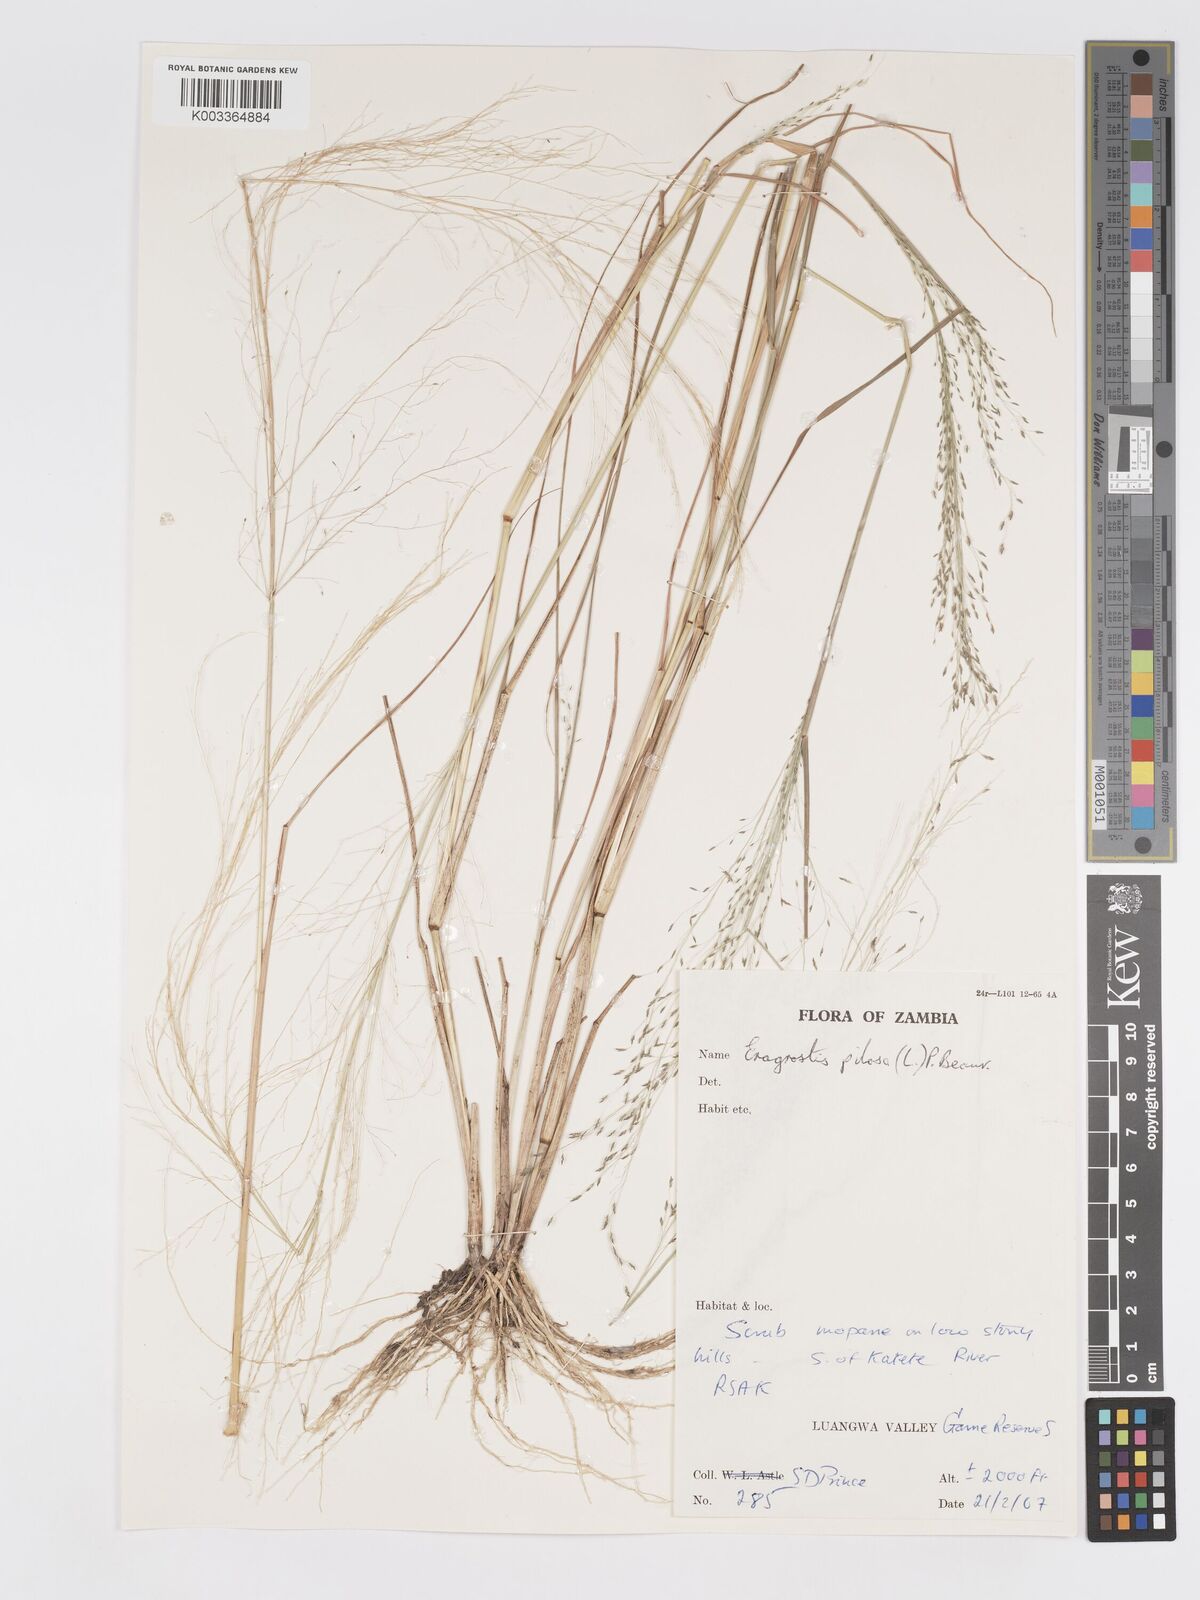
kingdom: Plantae
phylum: Tracheophyta
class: Liliopsida
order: Poales
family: Poaceae
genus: Eragrostis
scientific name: Eragrostis pilosa
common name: Indian lovegrass
